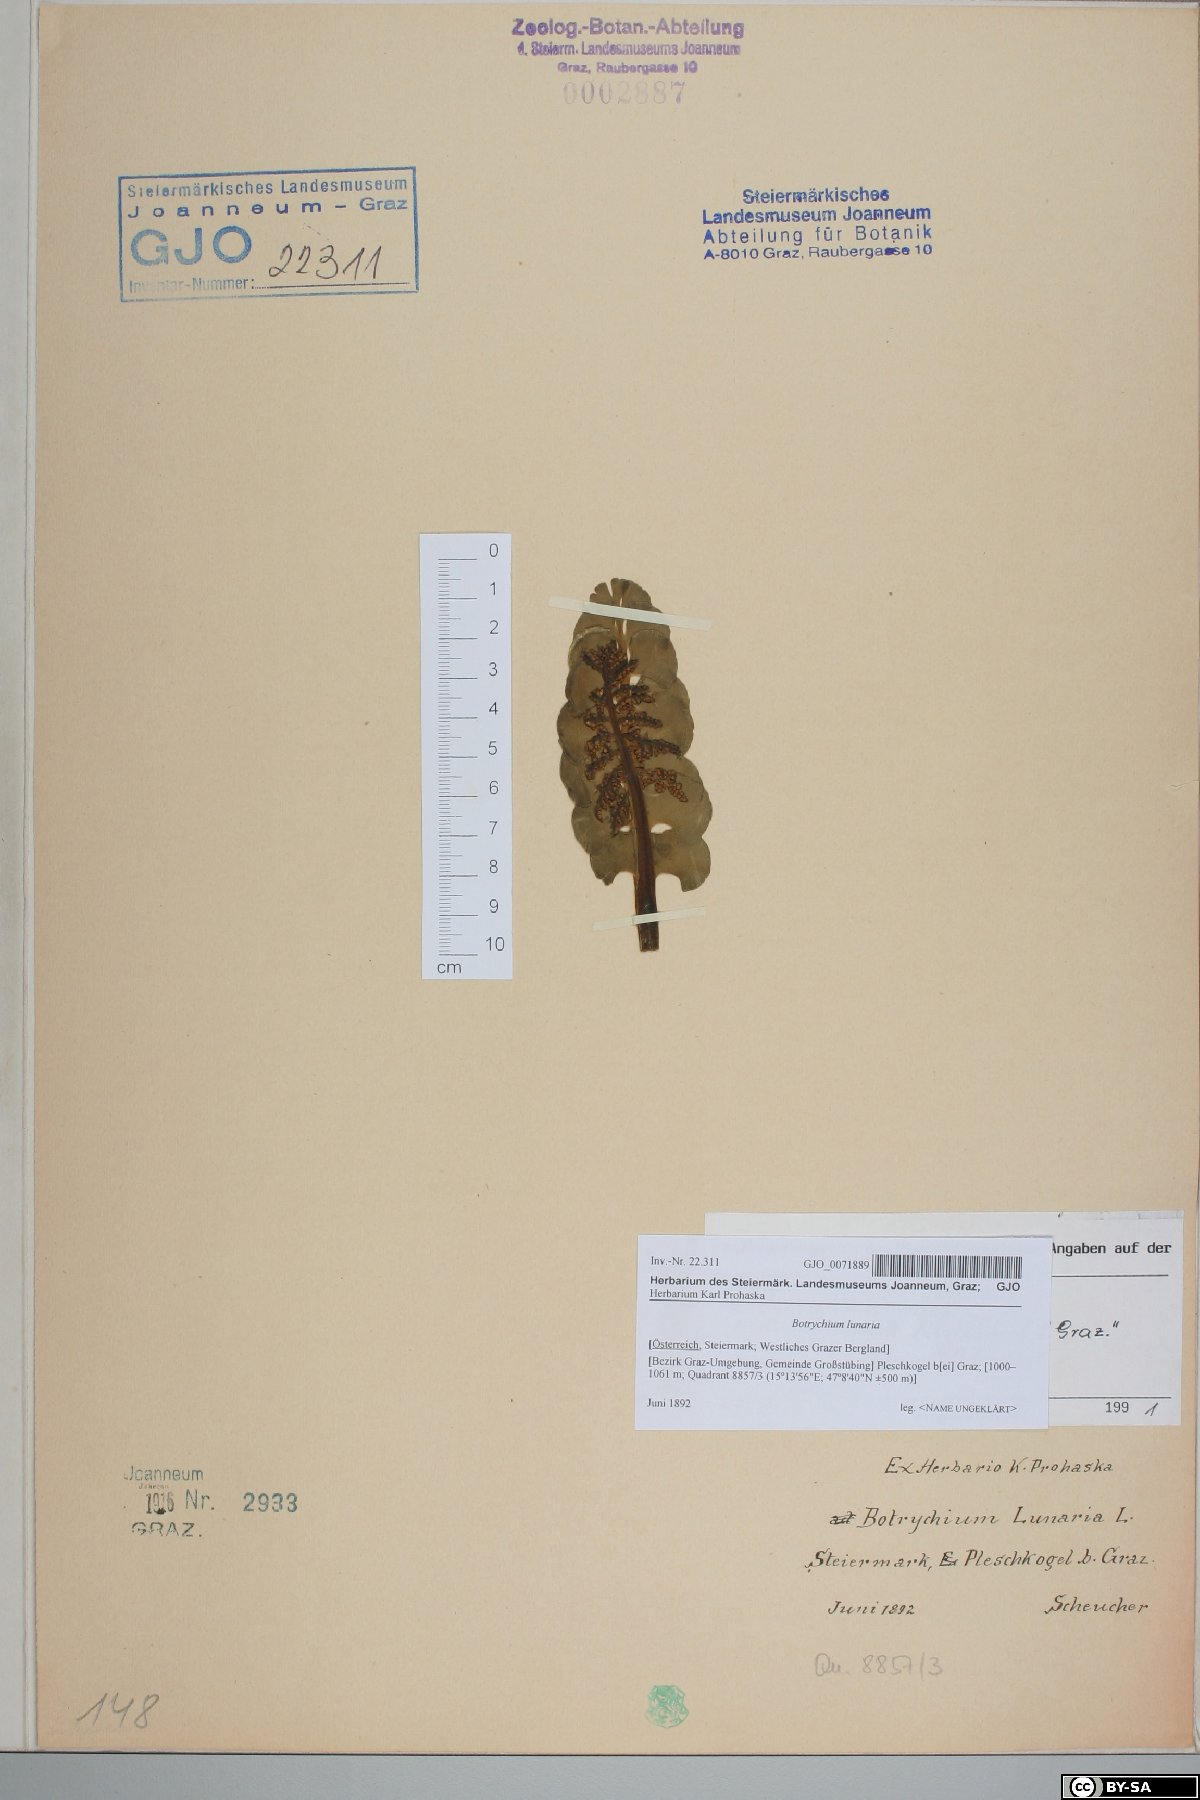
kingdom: Plantae
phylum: Tracheophyta
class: Polypodiopsida
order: Ophioglossales
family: Ophioglossaceae
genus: Botrychium
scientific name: Botrychium lunaria
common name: Moonwort
